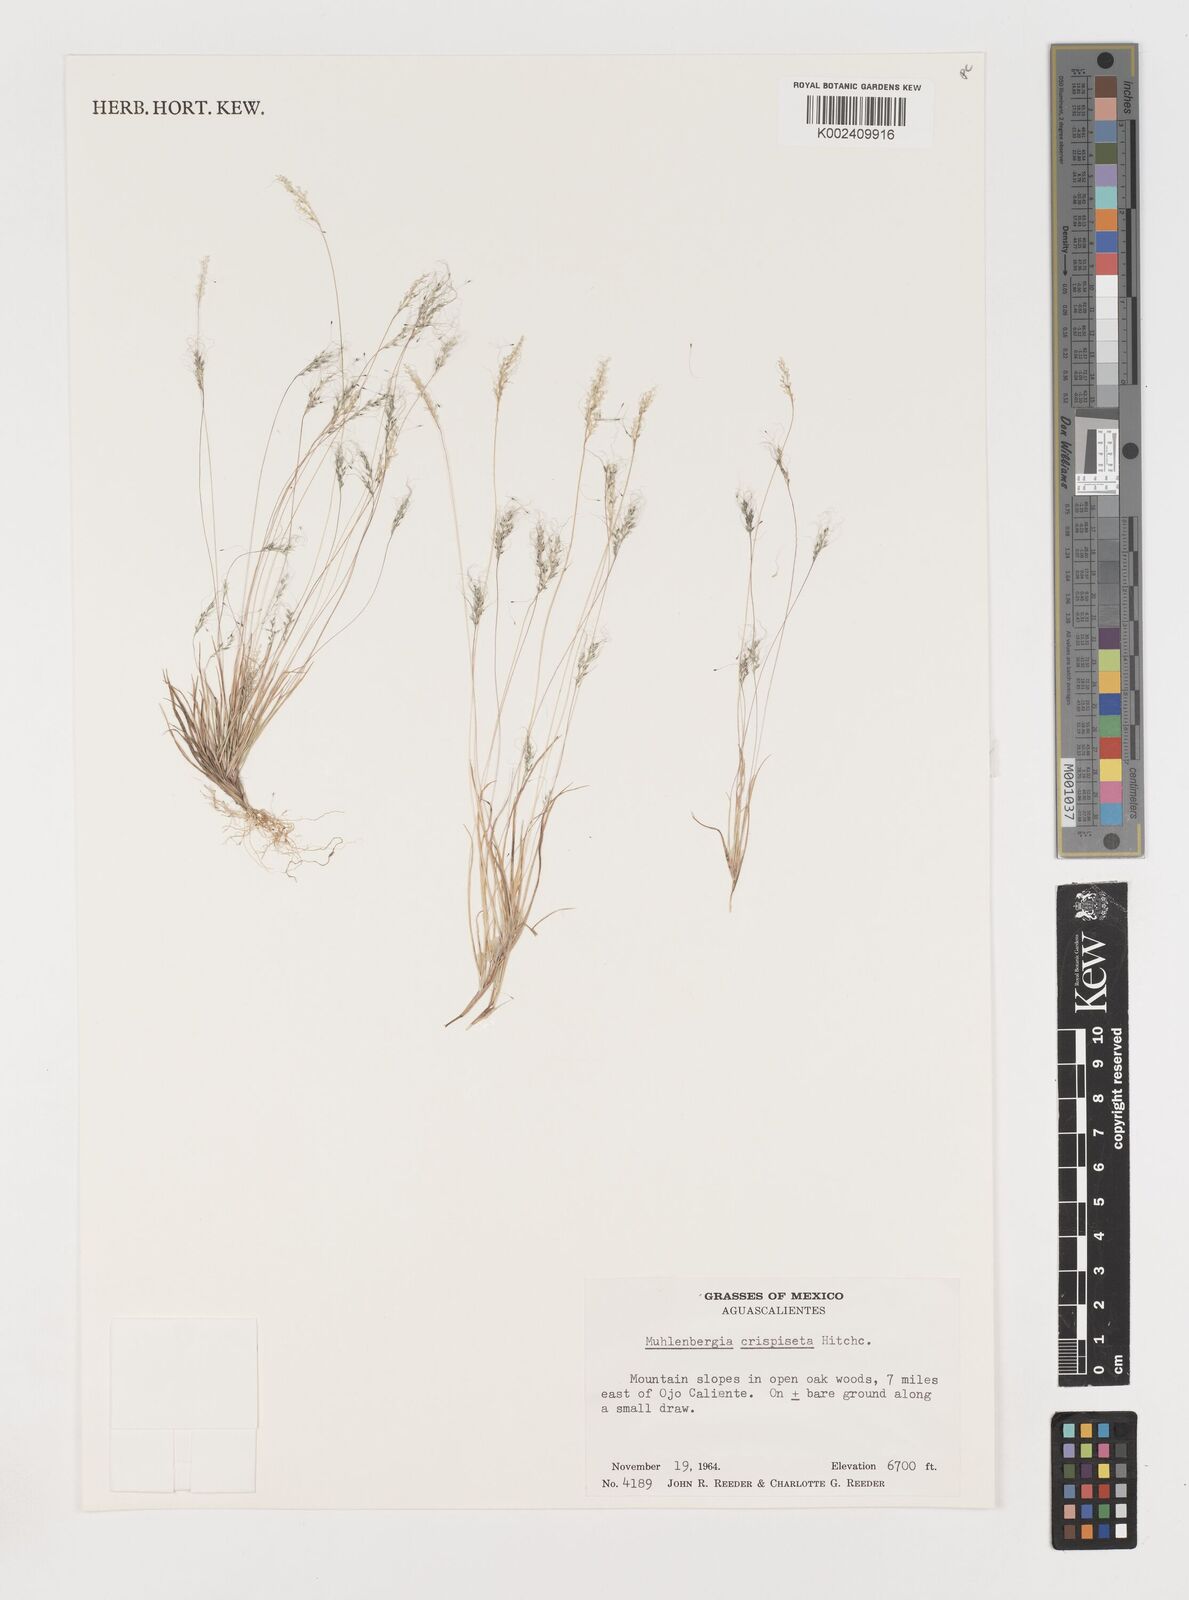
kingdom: Plantae
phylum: Tracheophyta
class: Liliopsida
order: Poales
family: Poaceae
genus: Muhlenbergia
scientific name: Muhlenbergia crispiseta
